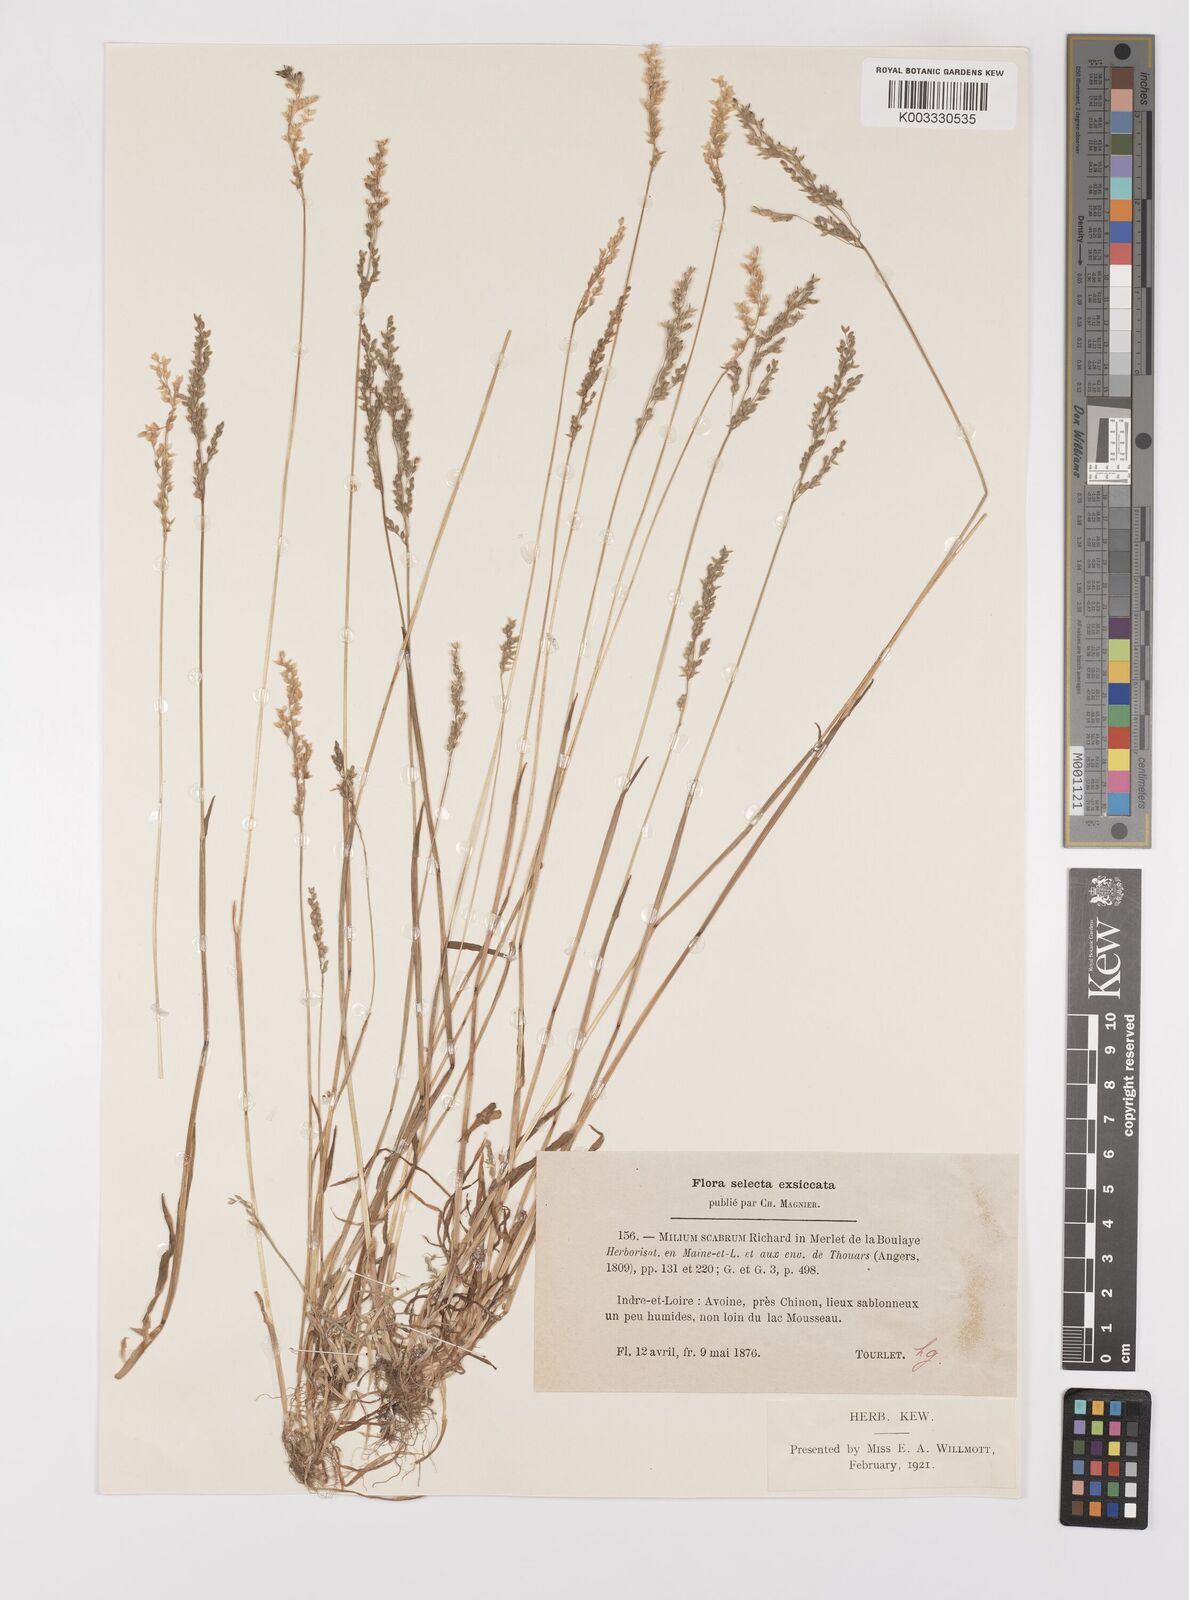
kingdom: Plantae
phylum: Tracheophyta
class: Liliopsida
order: Poales
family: Poaceae
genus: Milium
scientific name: Milium vernale
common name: Early millet
